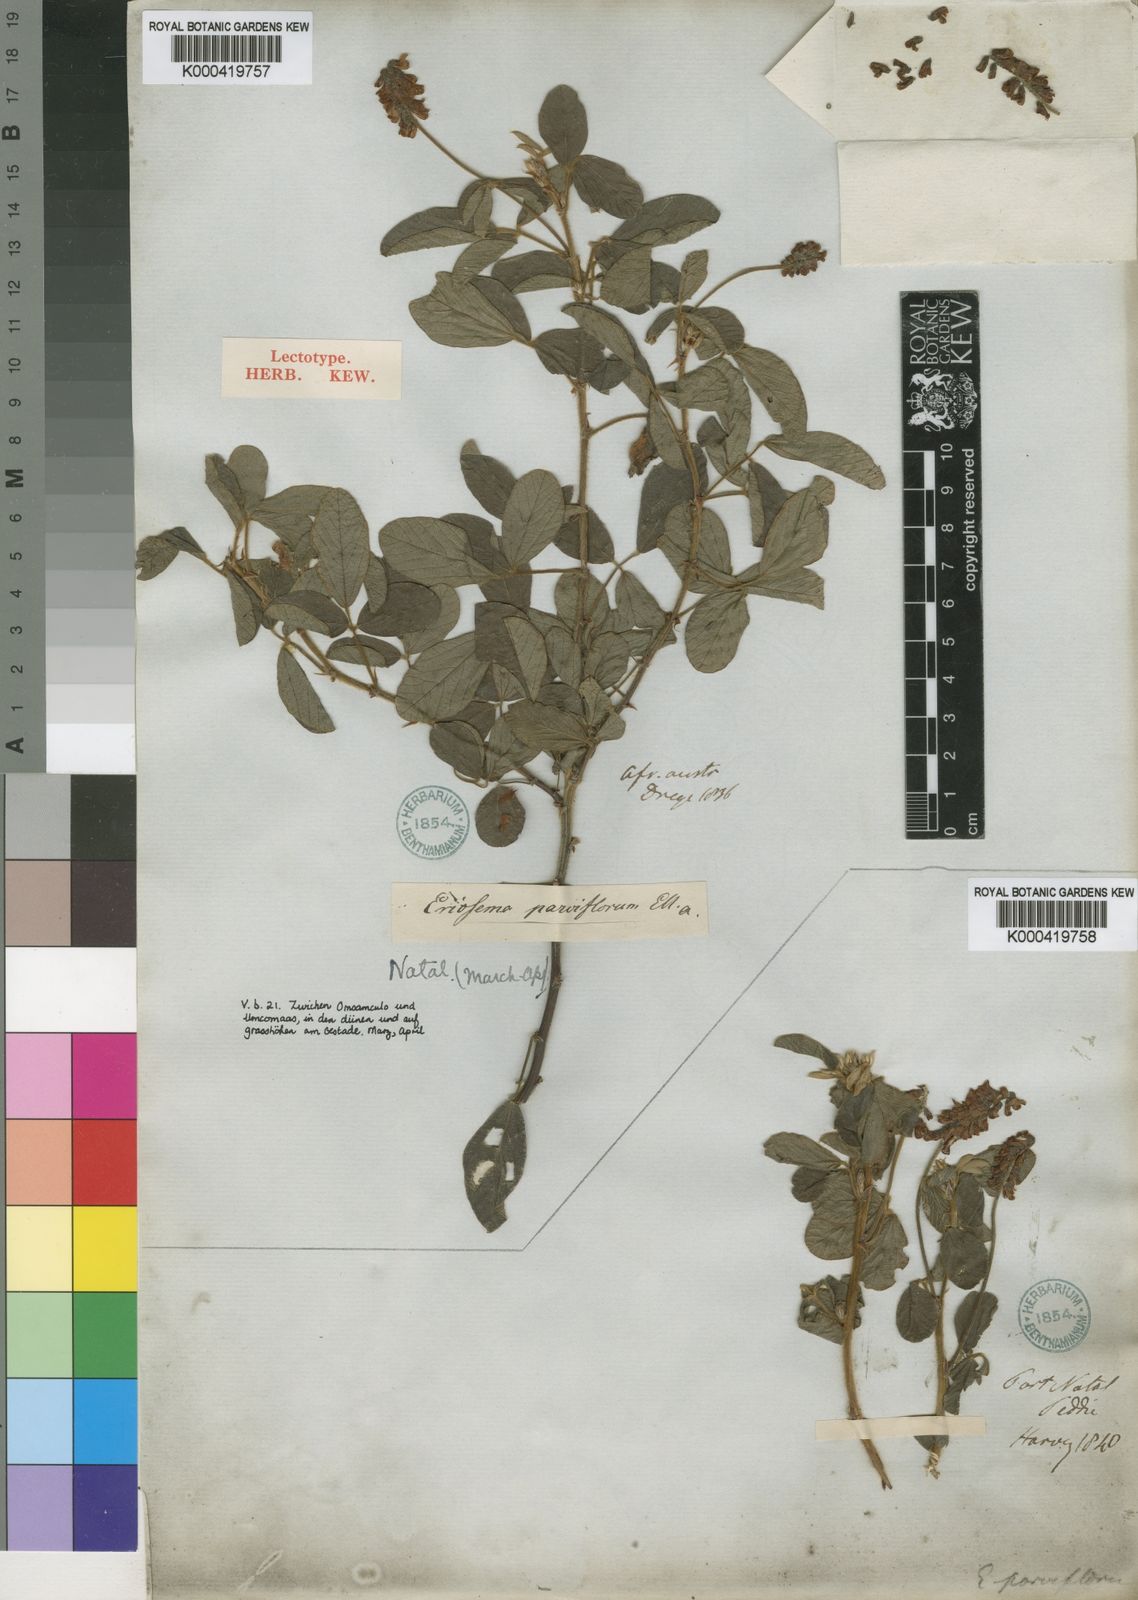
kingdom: Plantae
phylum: Tracheophyta
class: Magnoliopsida
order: Fabales
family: Fabaceae
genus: Eriosema
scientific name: Eriosema parviflorum
